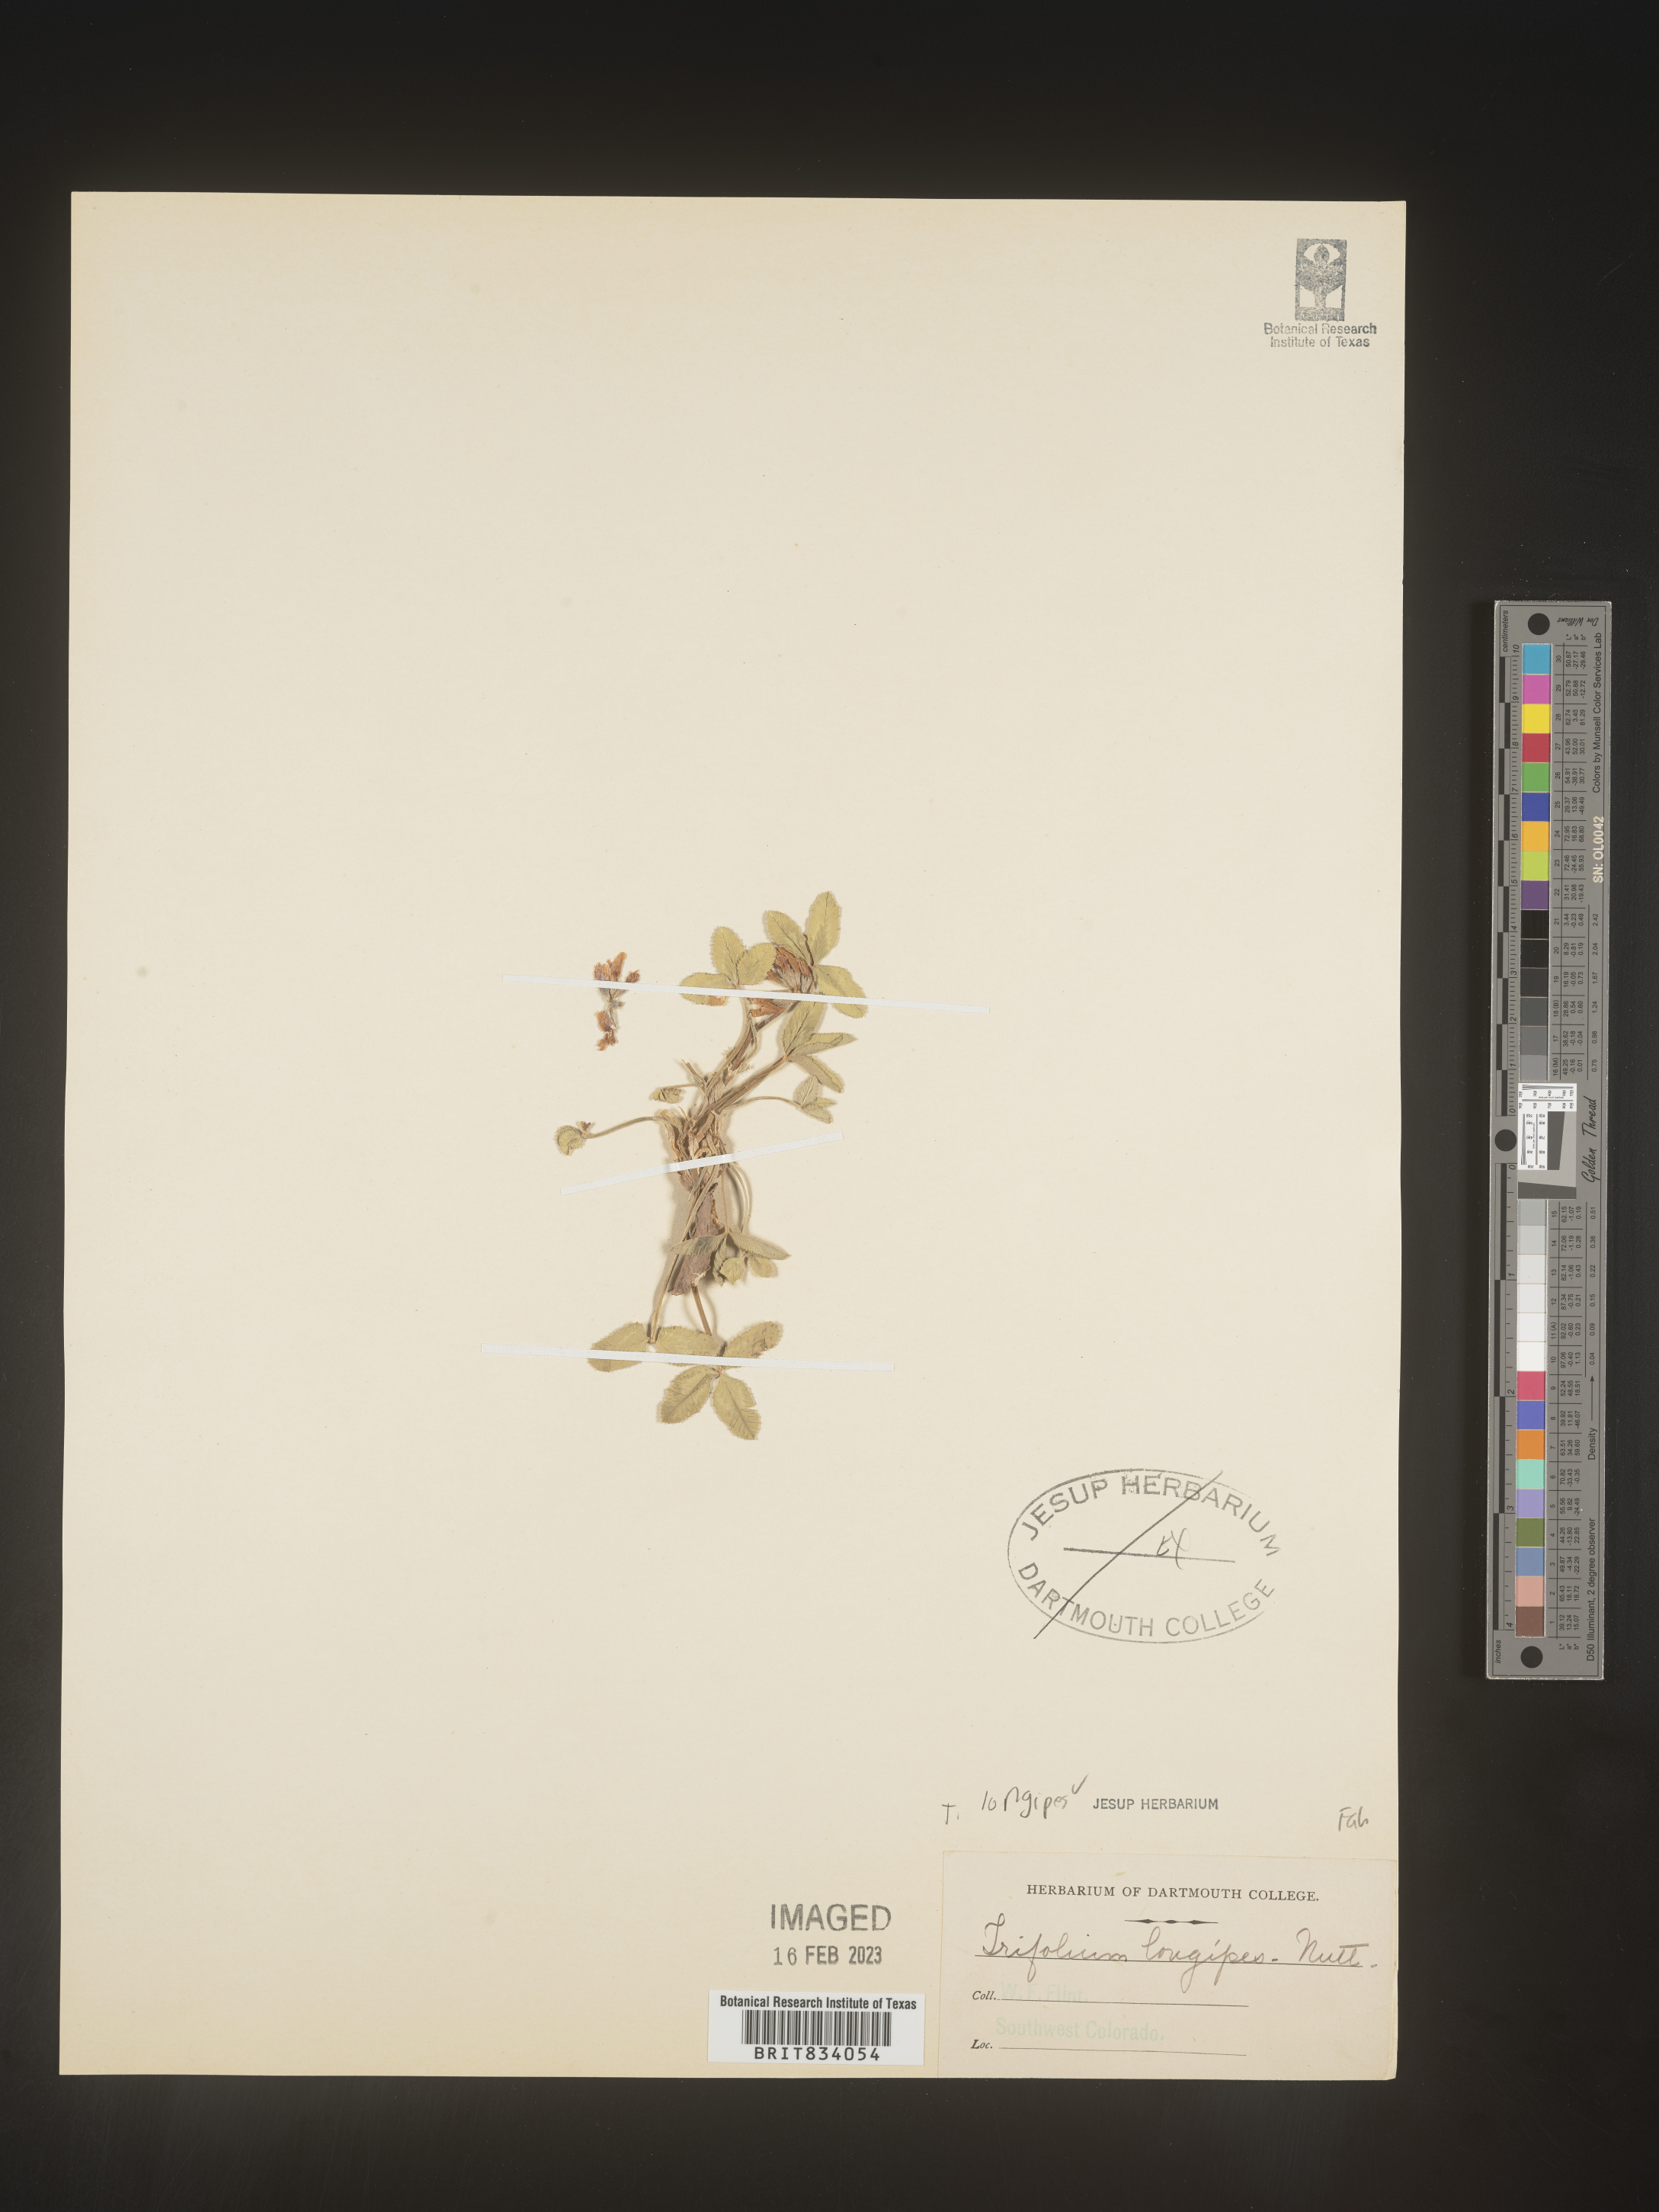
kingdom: Plantae
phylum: Tracheophyta
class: Magnoliopsida
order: Fabales
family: Fabaceae
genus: Trifolium
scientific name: Trifolium
